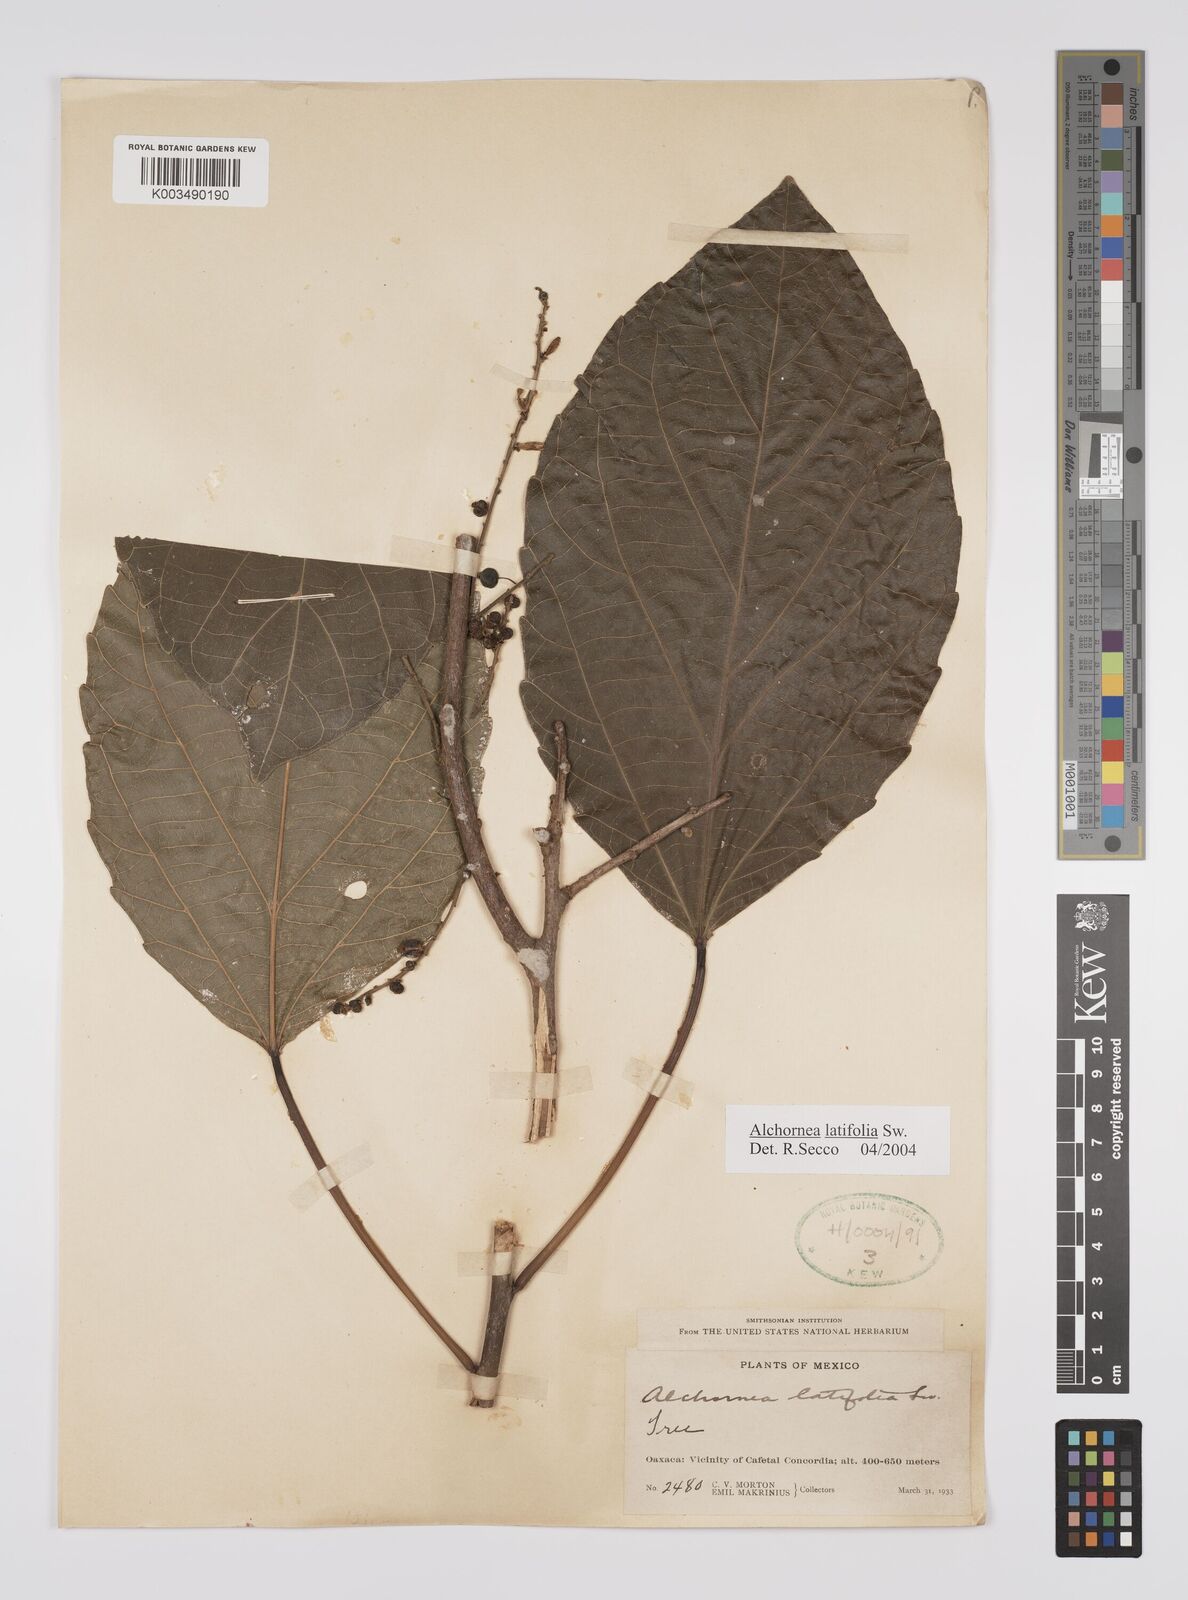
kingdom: Plantae
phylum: Tracheophyta
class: Magnoliopsida
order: Malpighiales
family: Euphorbiaceae
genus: Alchornea
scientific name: Alchornea latifolia
